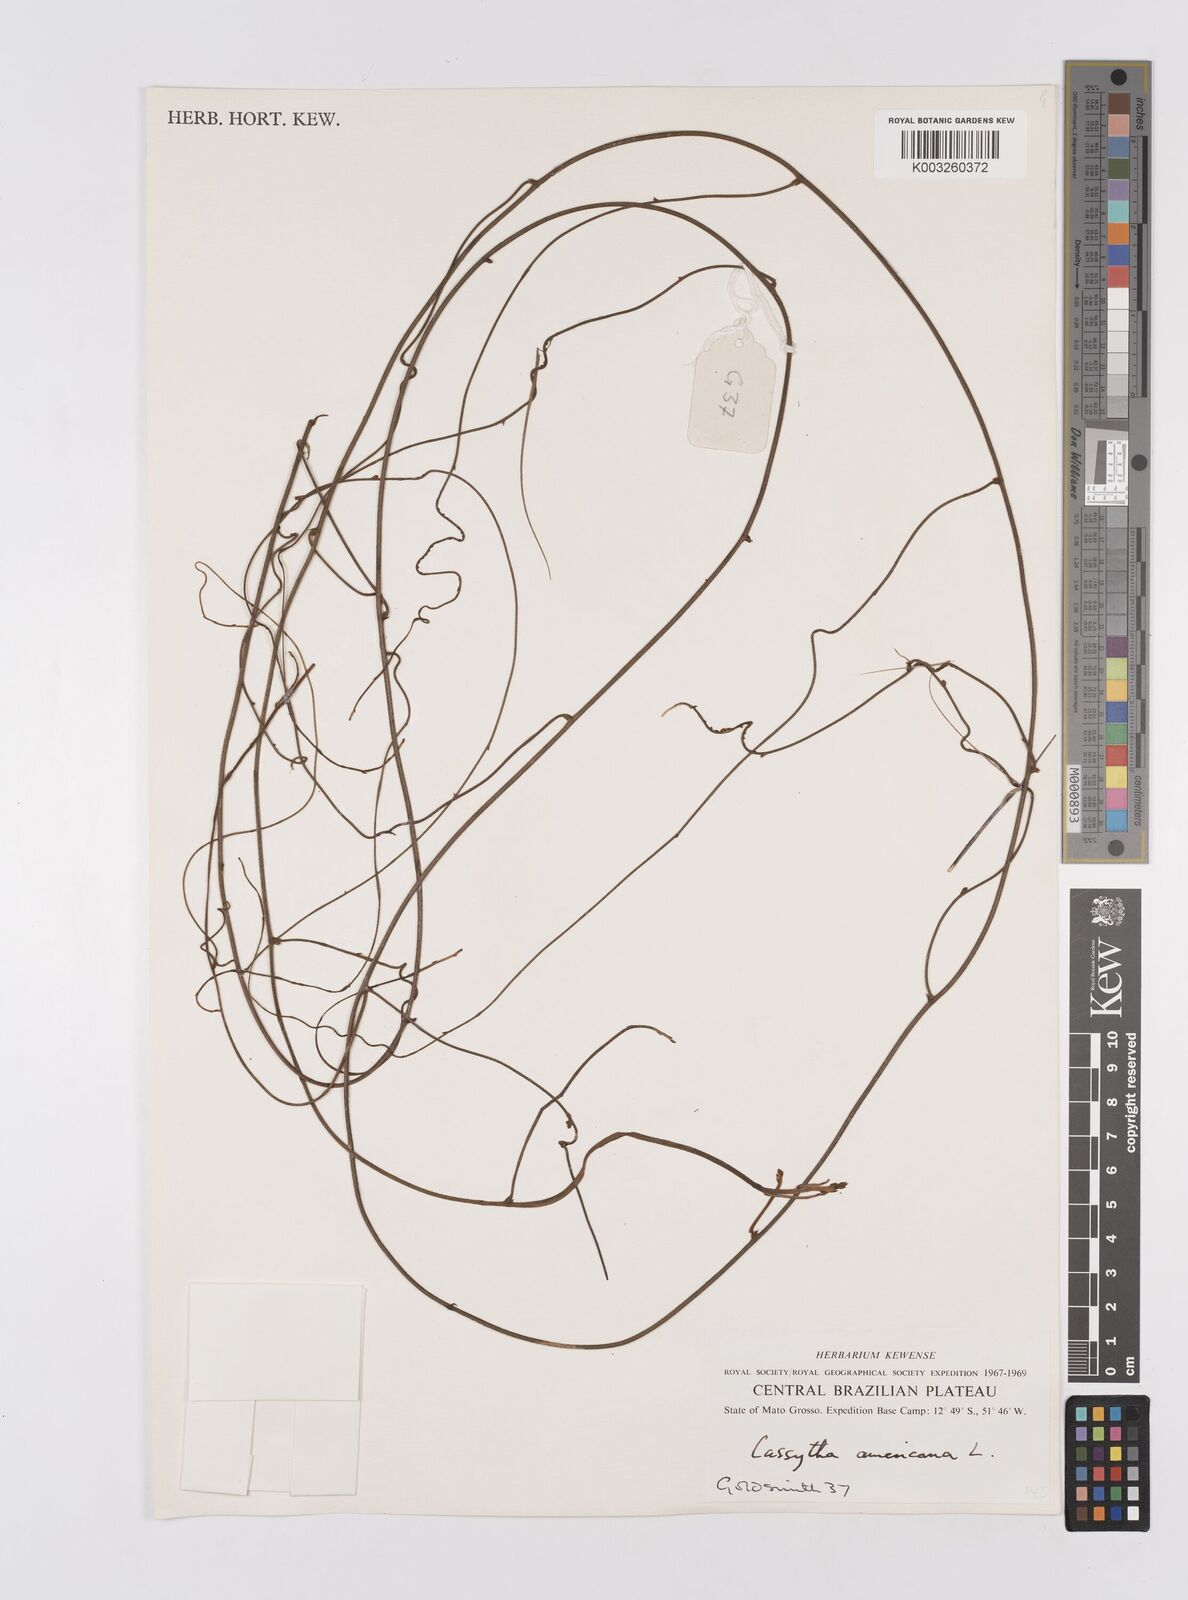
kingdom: Plantae
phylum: Tracheophyta
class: Magnoliopsida
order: Laurales
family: Lauraceae
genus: Cassytha
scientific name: Cassytha filiformis
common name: Dodder-laurel
